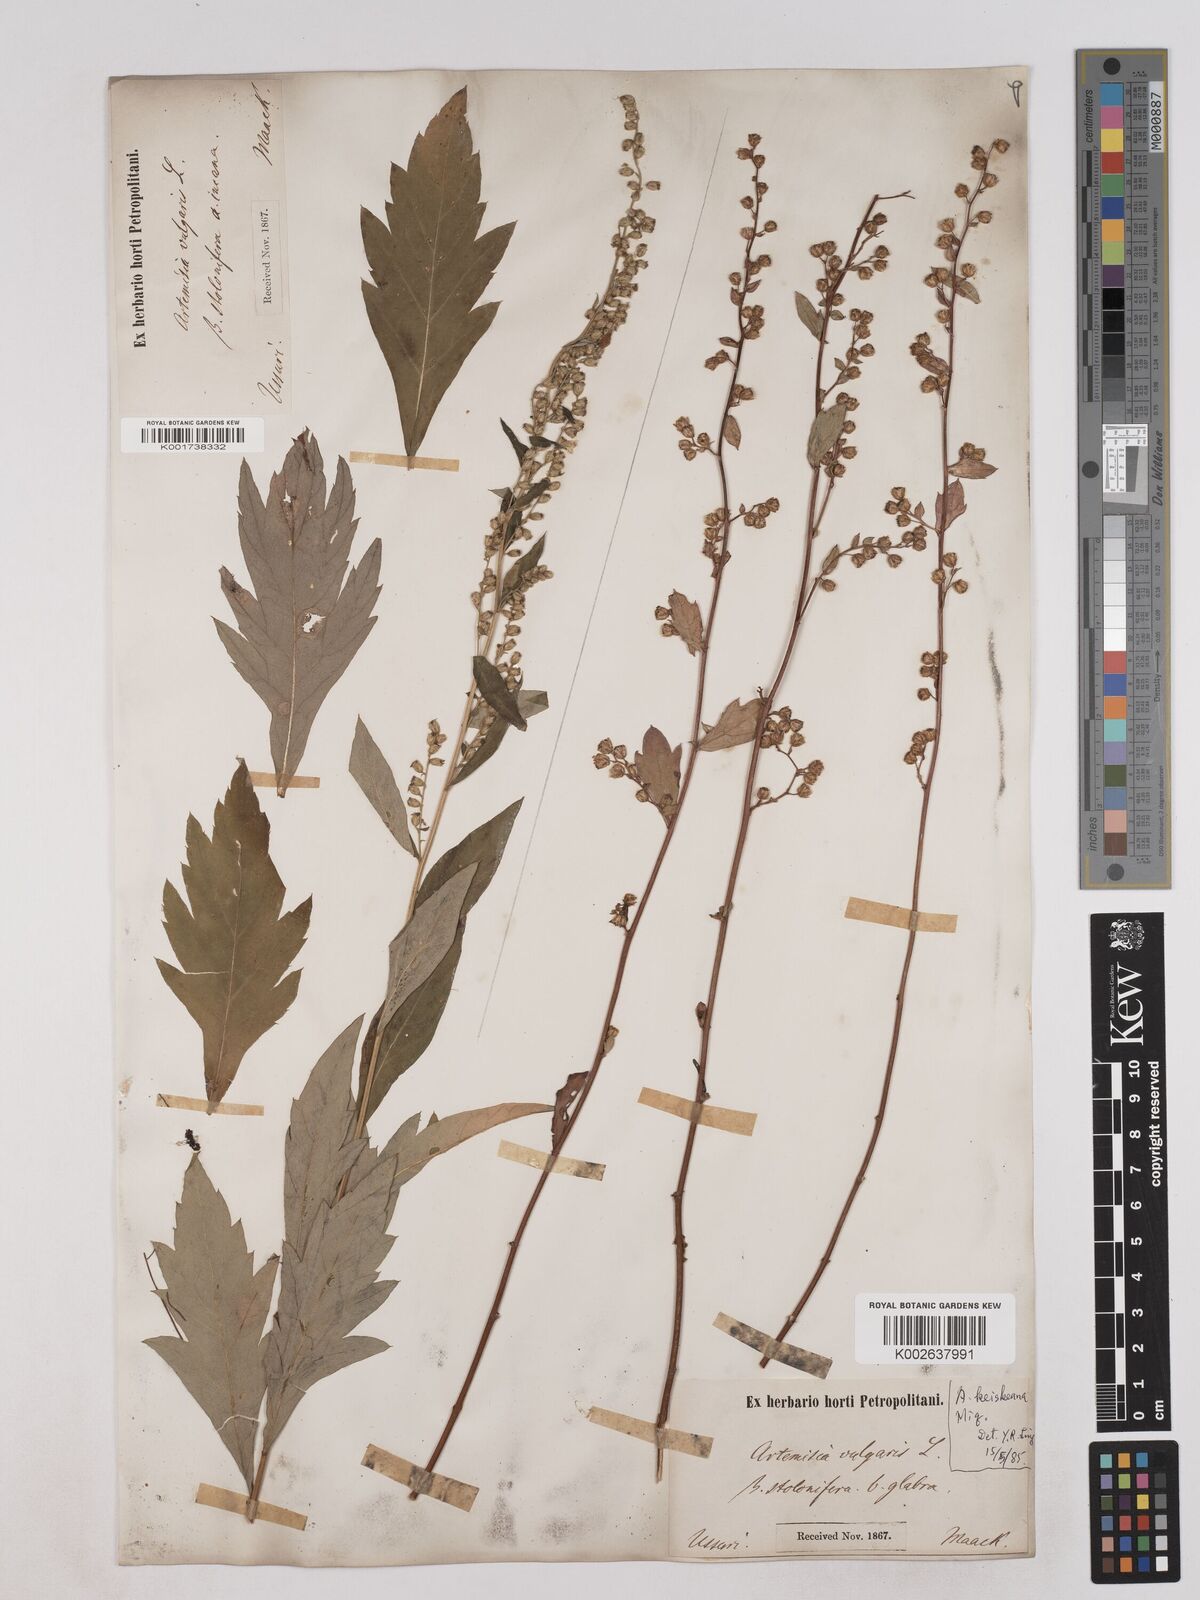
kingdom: Plantae
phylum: Tracheophyta
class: Magnoliopsida
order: Asterales
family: Asteraceae
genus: Artemisia
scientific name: Artemisia igniaria
